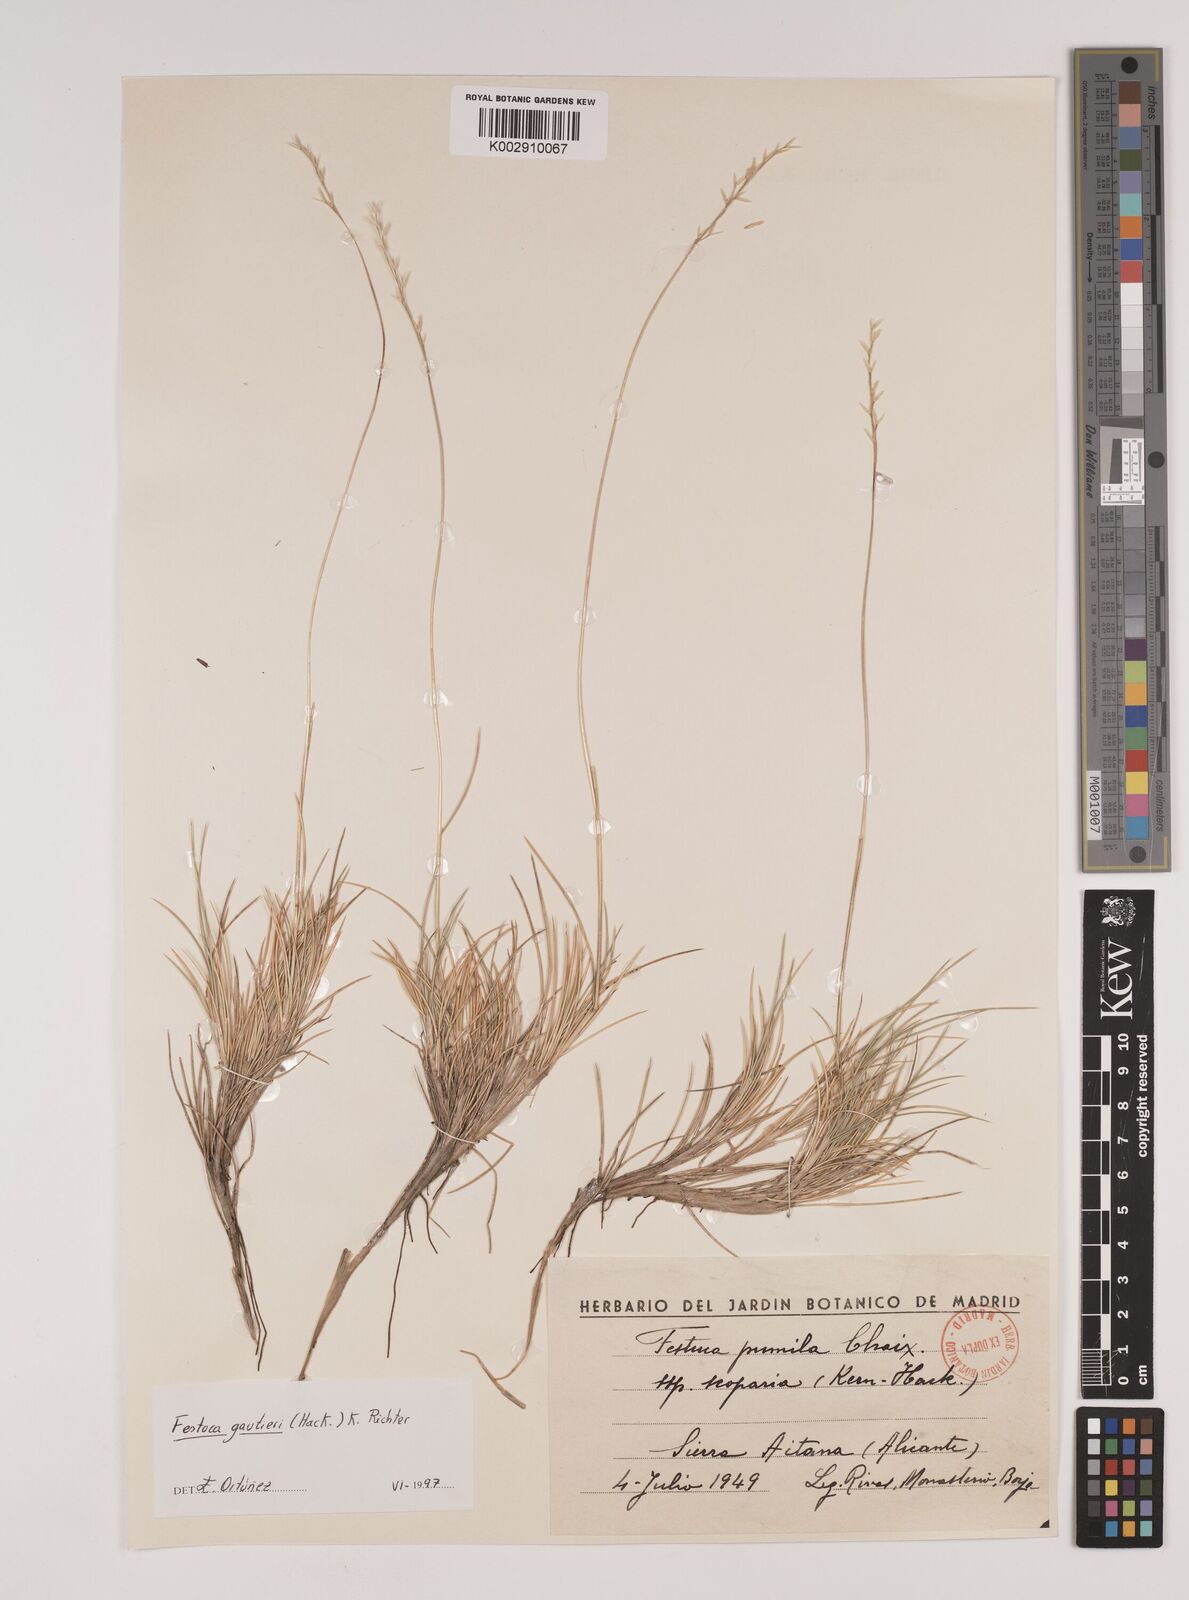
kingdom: Plantae
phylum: Tracheophyta
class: Liliopsida
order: Poales
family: Poaceae
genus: Festuca
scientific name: Festuca gautieri
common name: Spiky fescue
